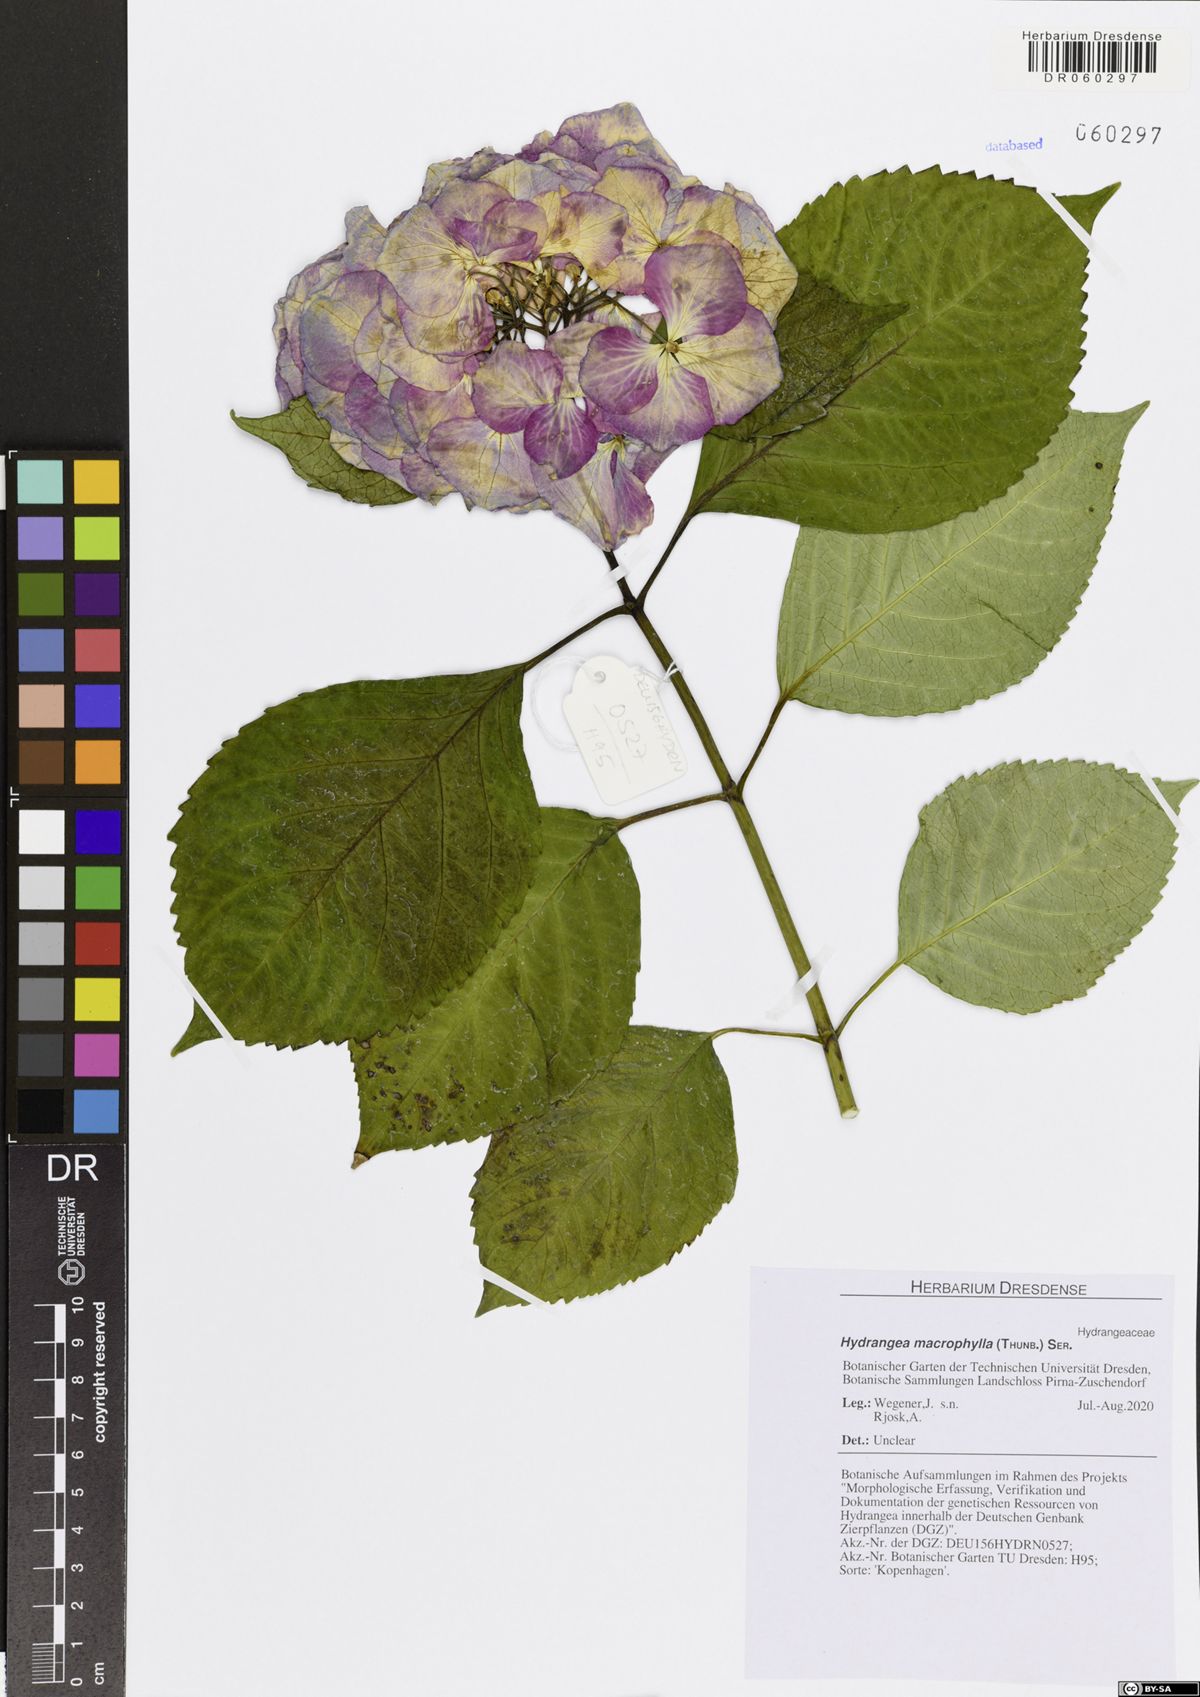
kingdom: Plantae
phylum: Tracheophyta
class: Magnoliopsida
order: Cornales
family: Hydrangeaceae
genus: Hydrangea
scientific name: Hydrangea macrophylla
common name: Hydrangea
